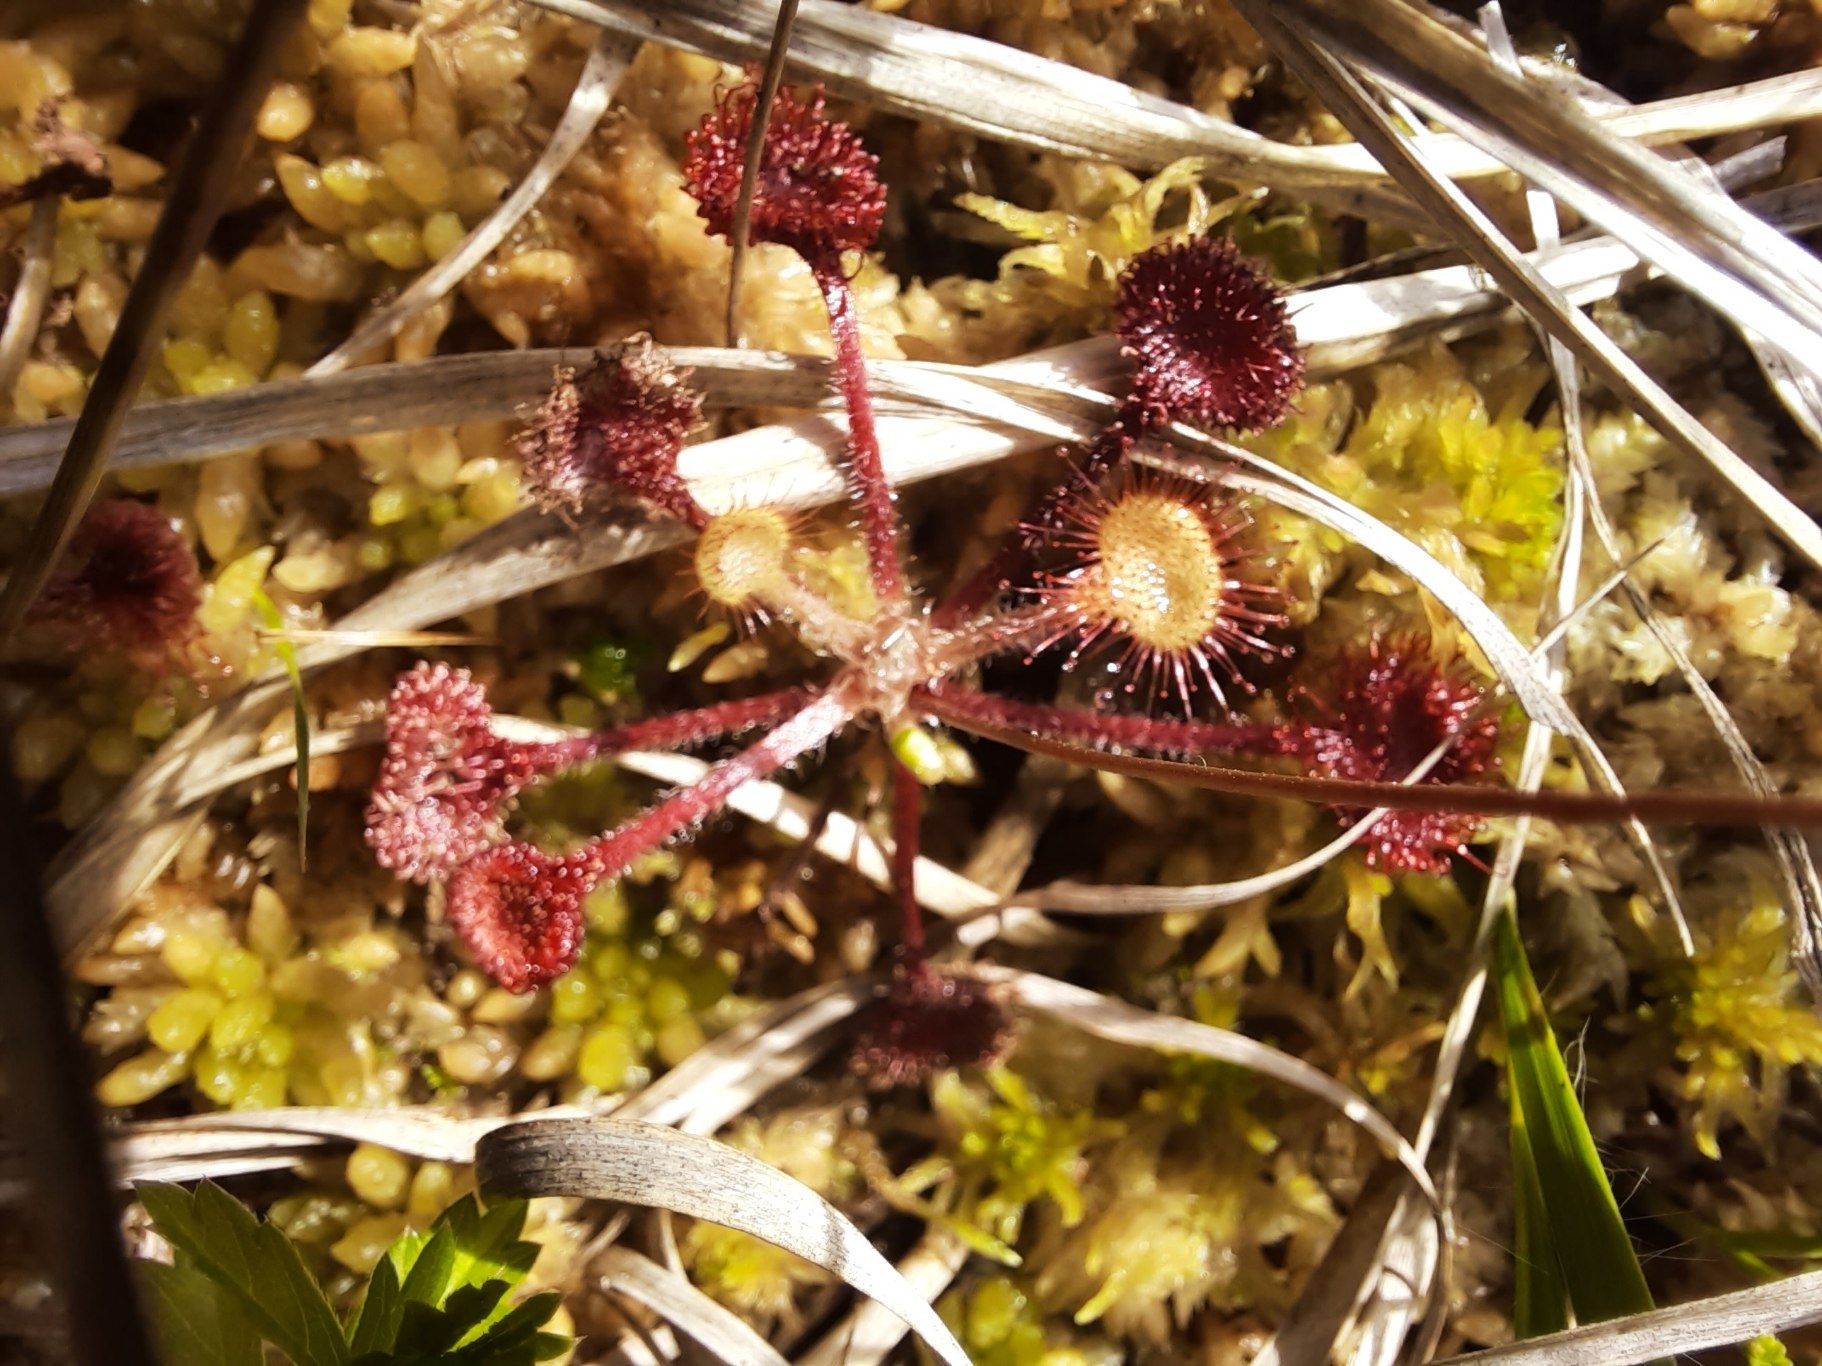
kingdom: Plantae
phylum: Tracheophyta
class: Magnoliopsida
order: Caryophyllales
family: Droseraceae
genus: Drosera
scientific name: Drosera rotundifolia
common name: Rundbladet soldug
